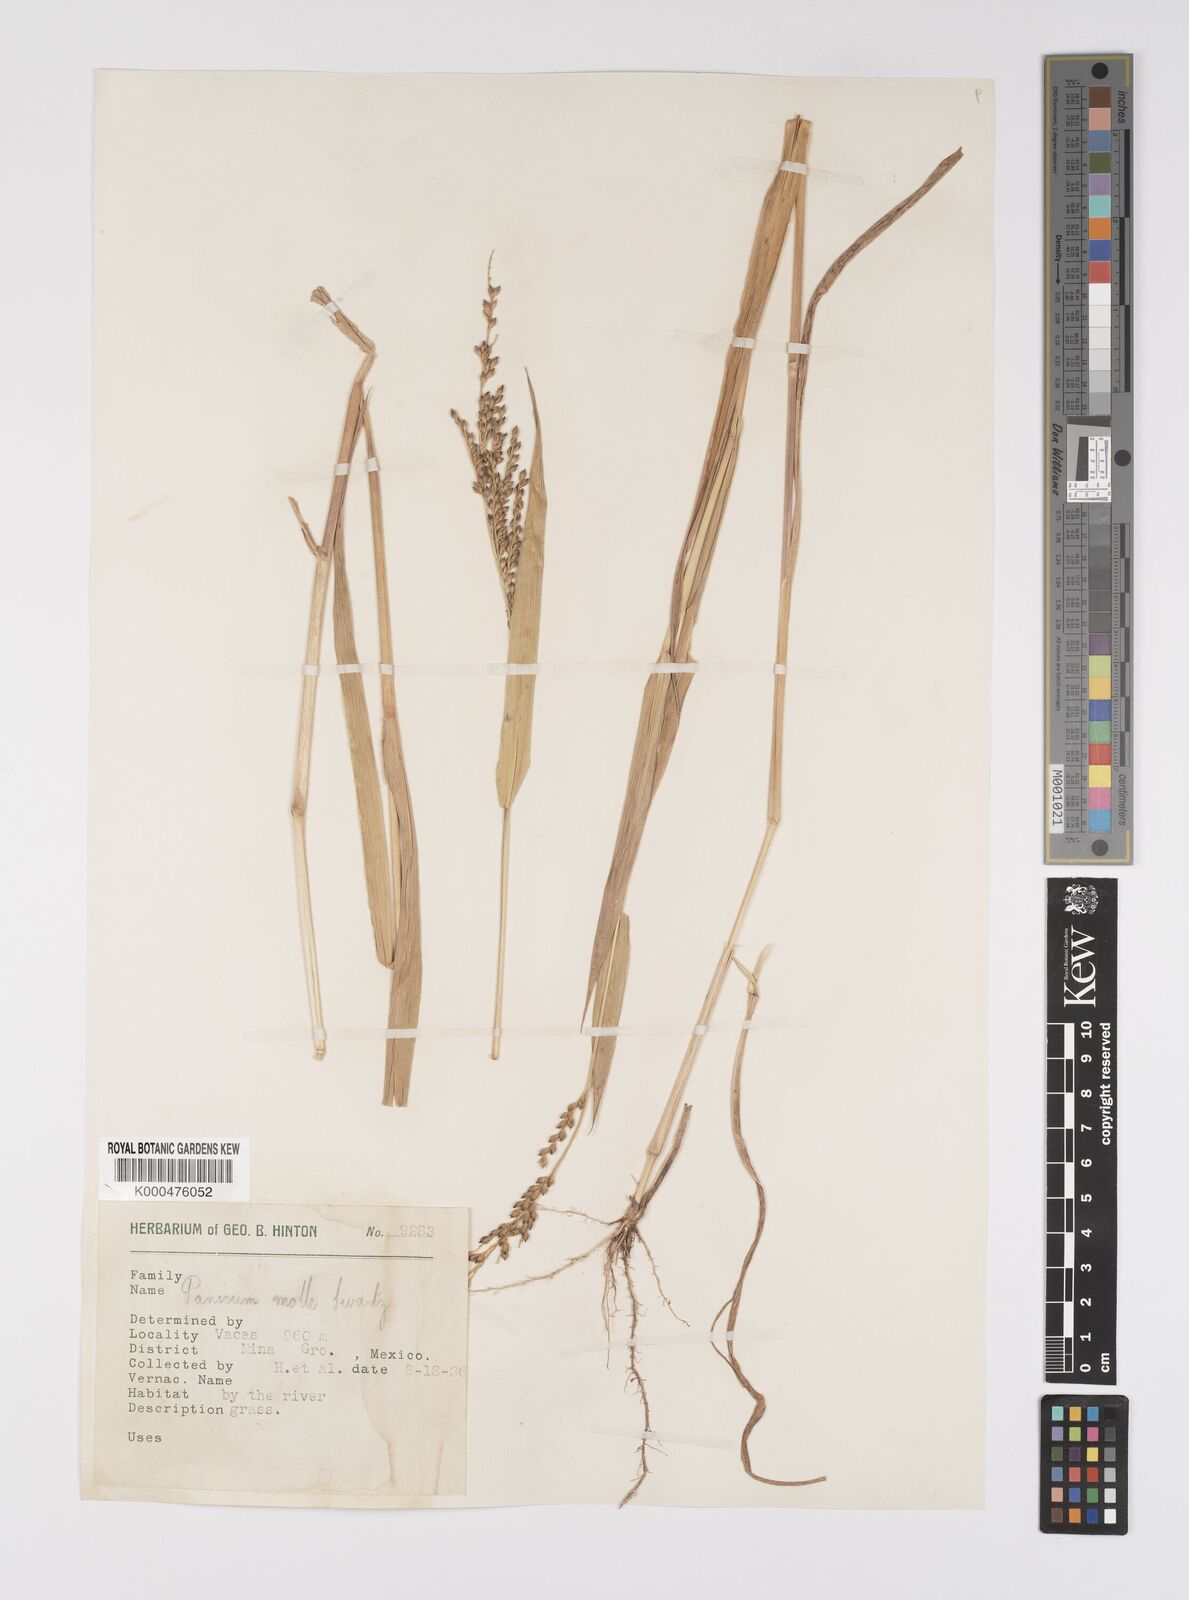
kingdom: Plantae
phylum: Tracheophyta
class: Liliopsida
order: Poales
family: Poaceae
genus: Urochloa
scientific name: Urochloa mollis
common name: Grass
